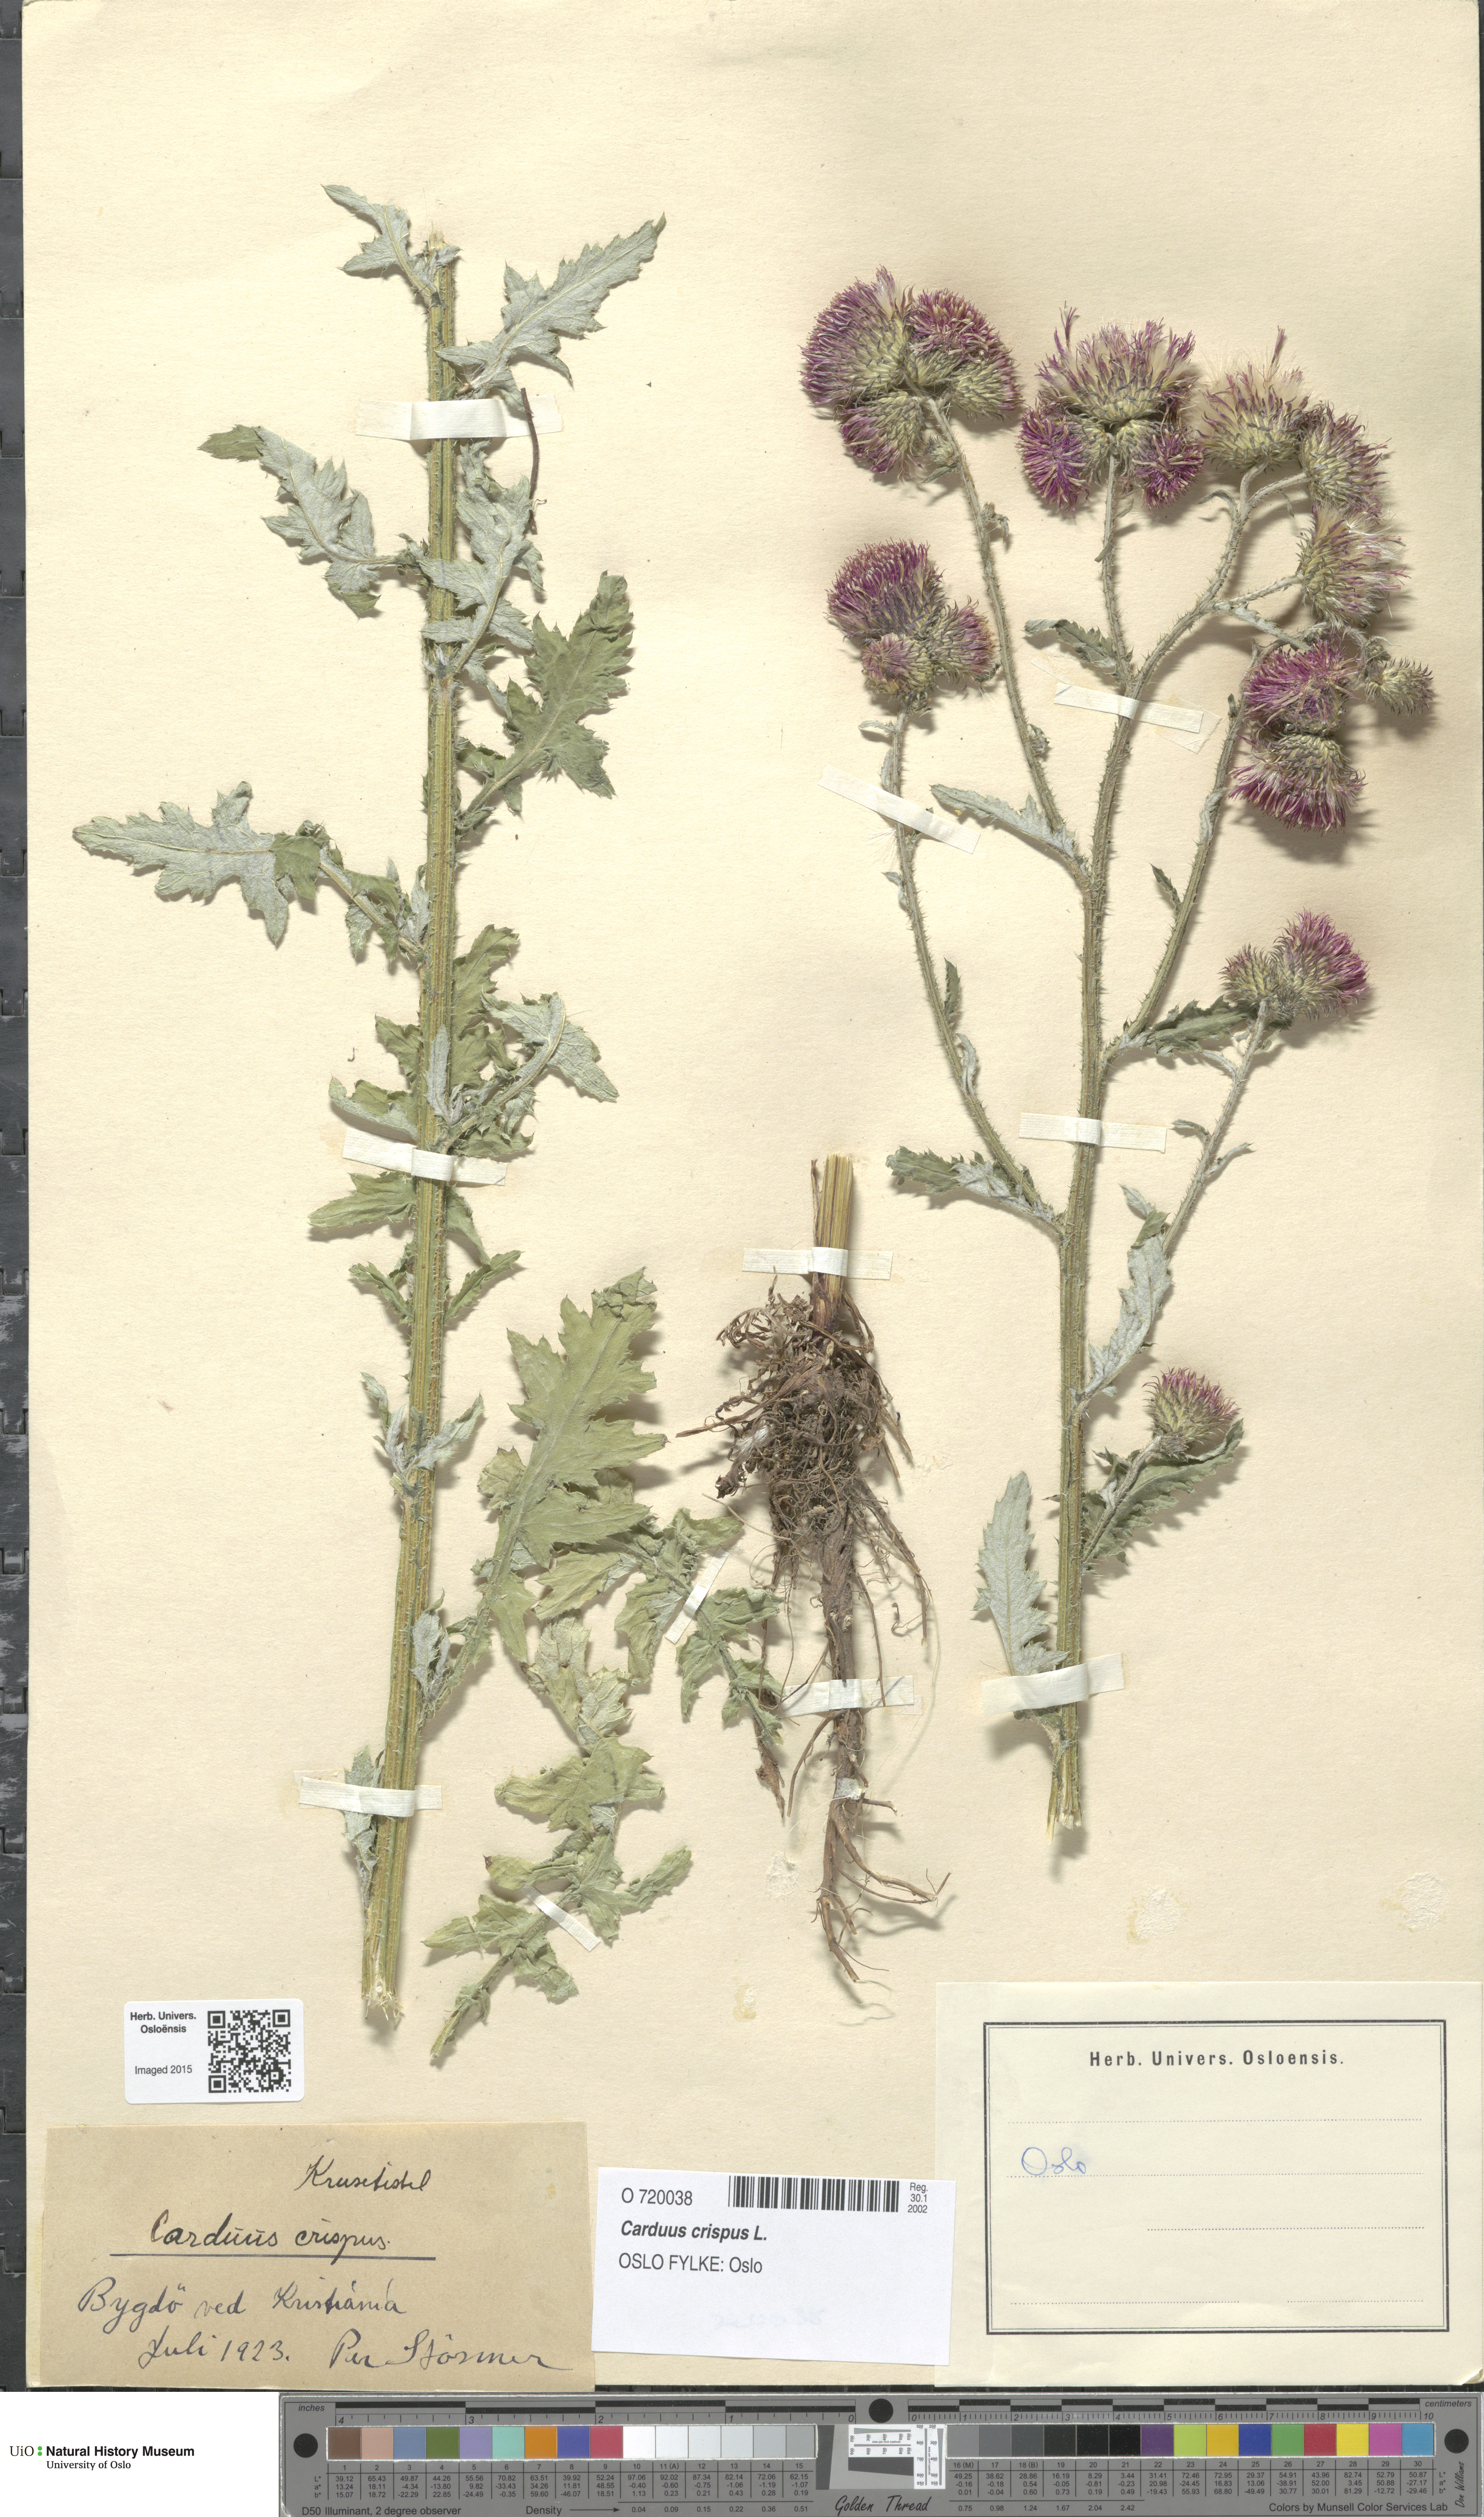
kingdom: Plantae
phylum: Tracheophyta
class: Magnoliopsida
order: Asterales
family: Asteraceae
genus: Carduus
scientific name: Carduus crispus
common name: Welted thistle
